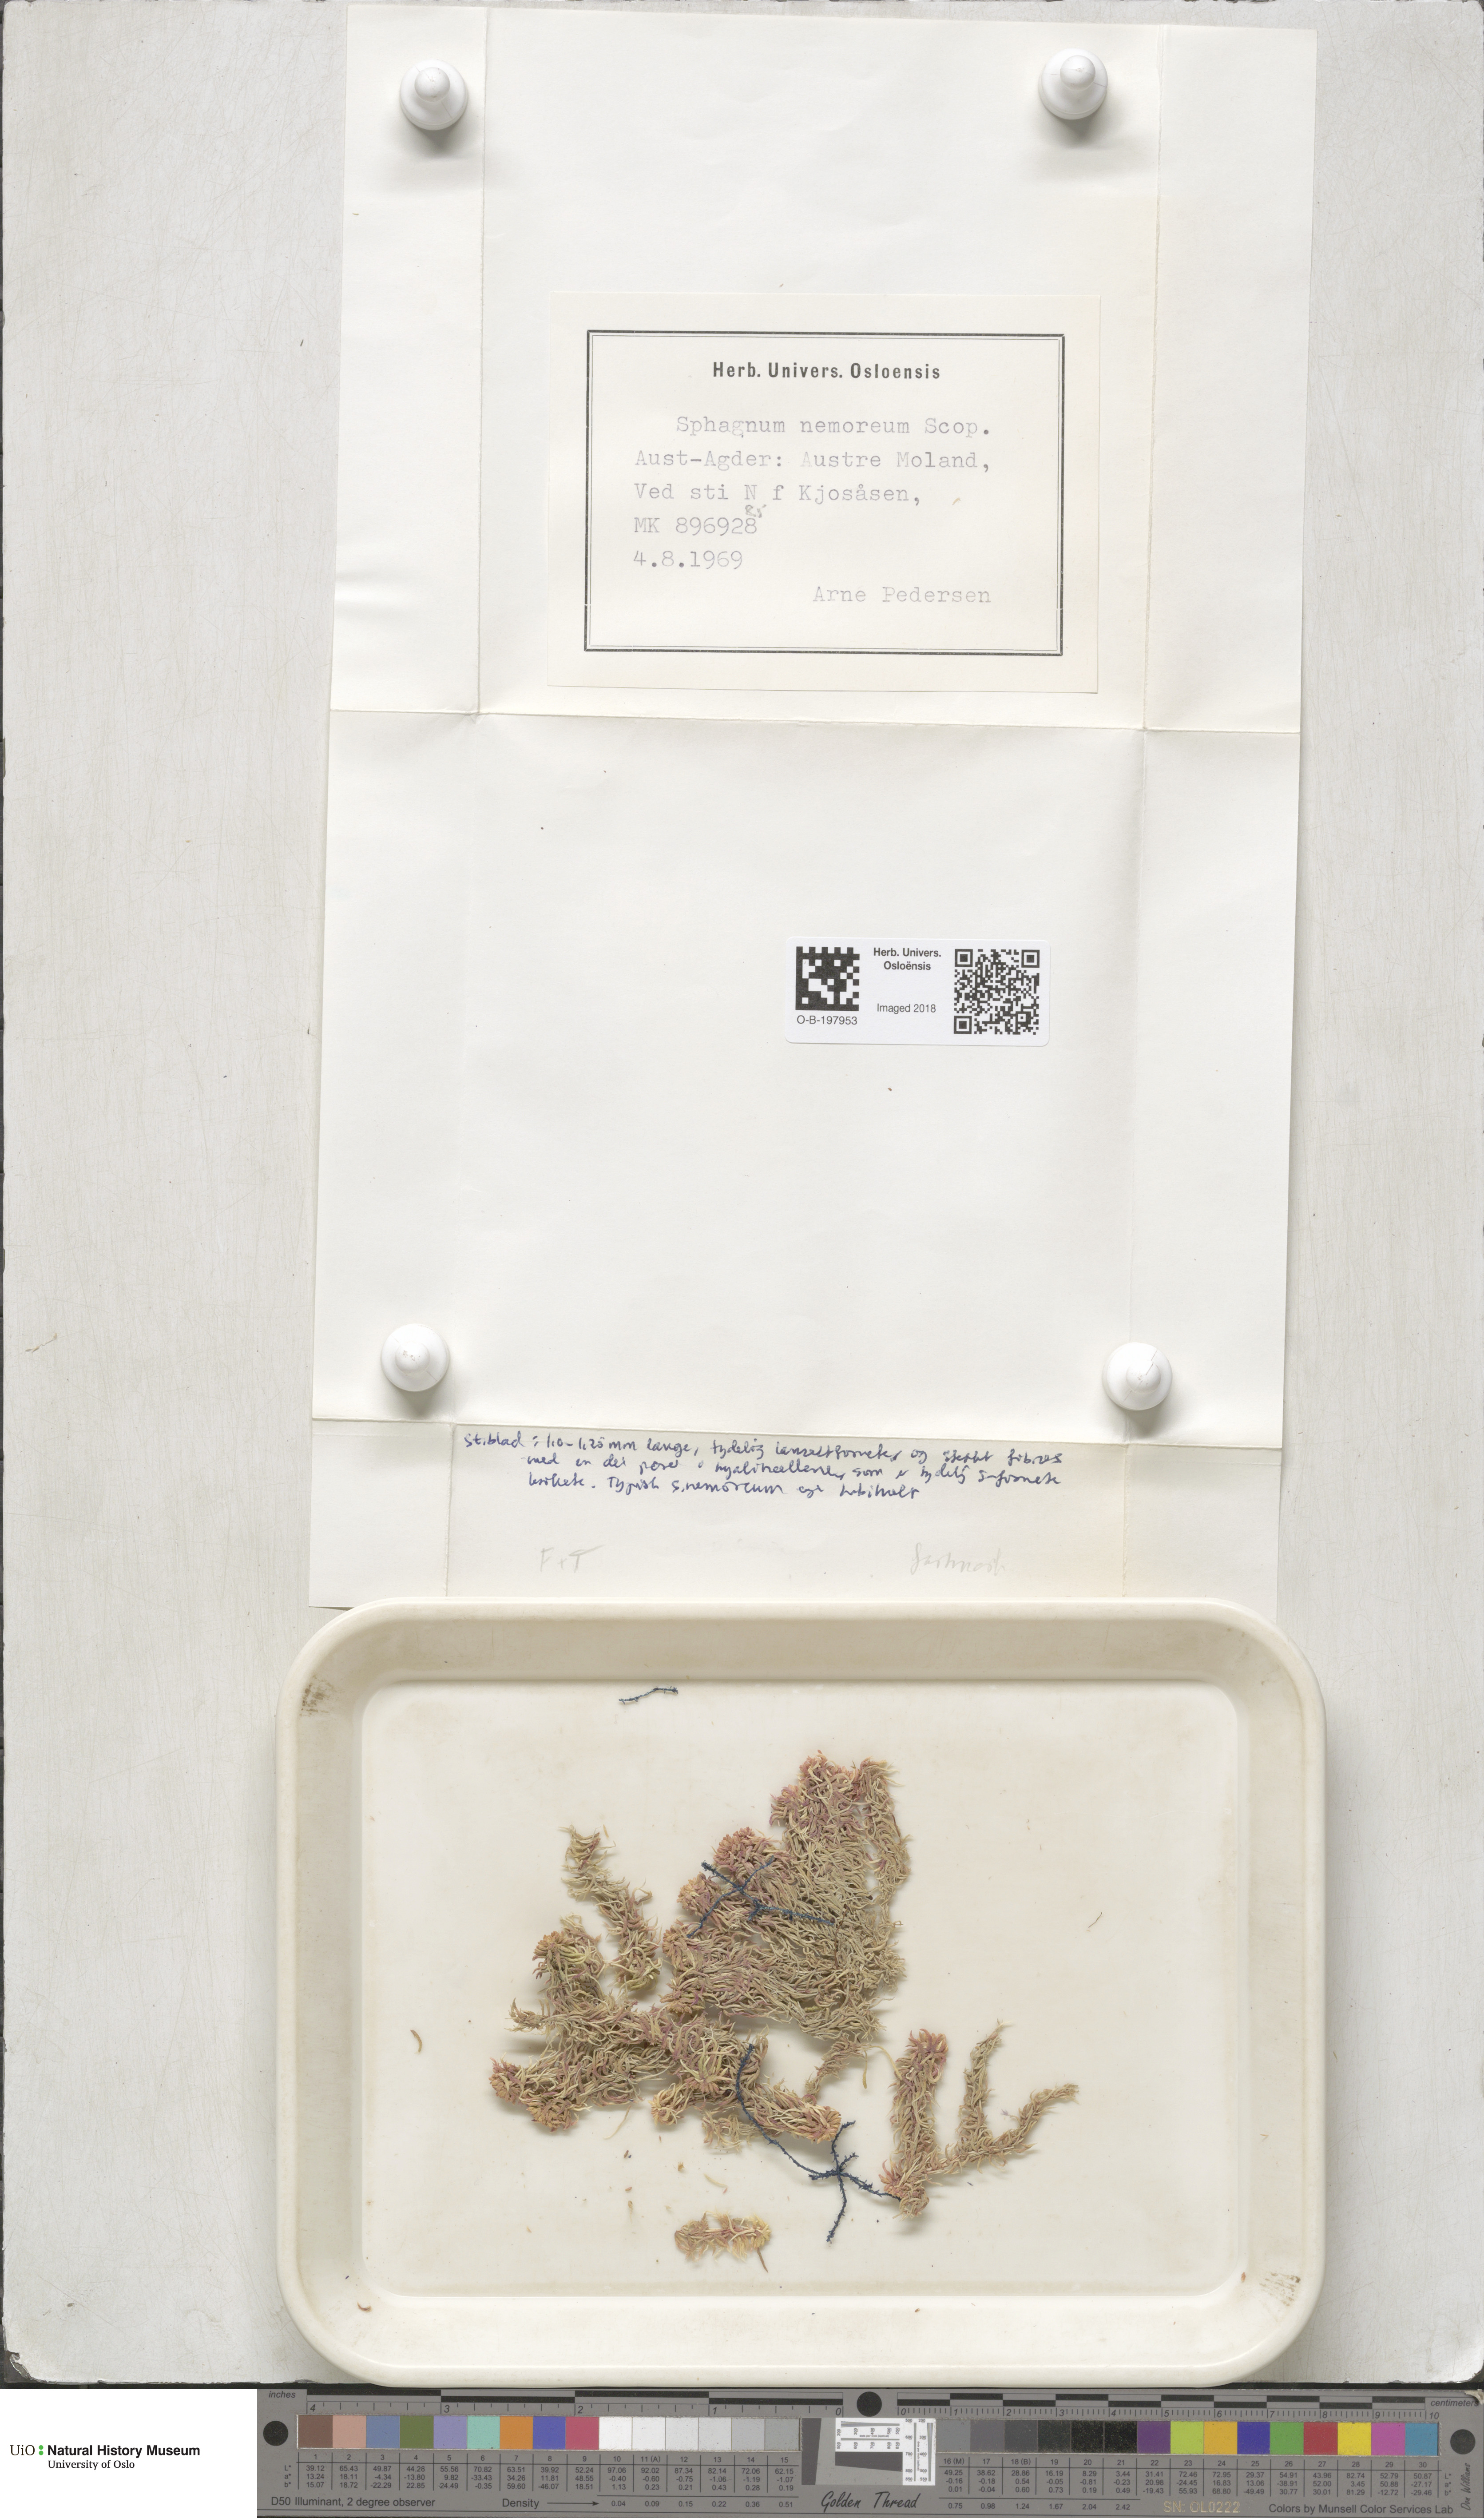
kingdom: Plantae
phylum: Bryophyta
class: Sphagnopsida
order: Sphagnales
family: Sphagnaceae
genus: Sphagnum
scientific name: Sphagnum capillifolium
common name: Small red peat moss
